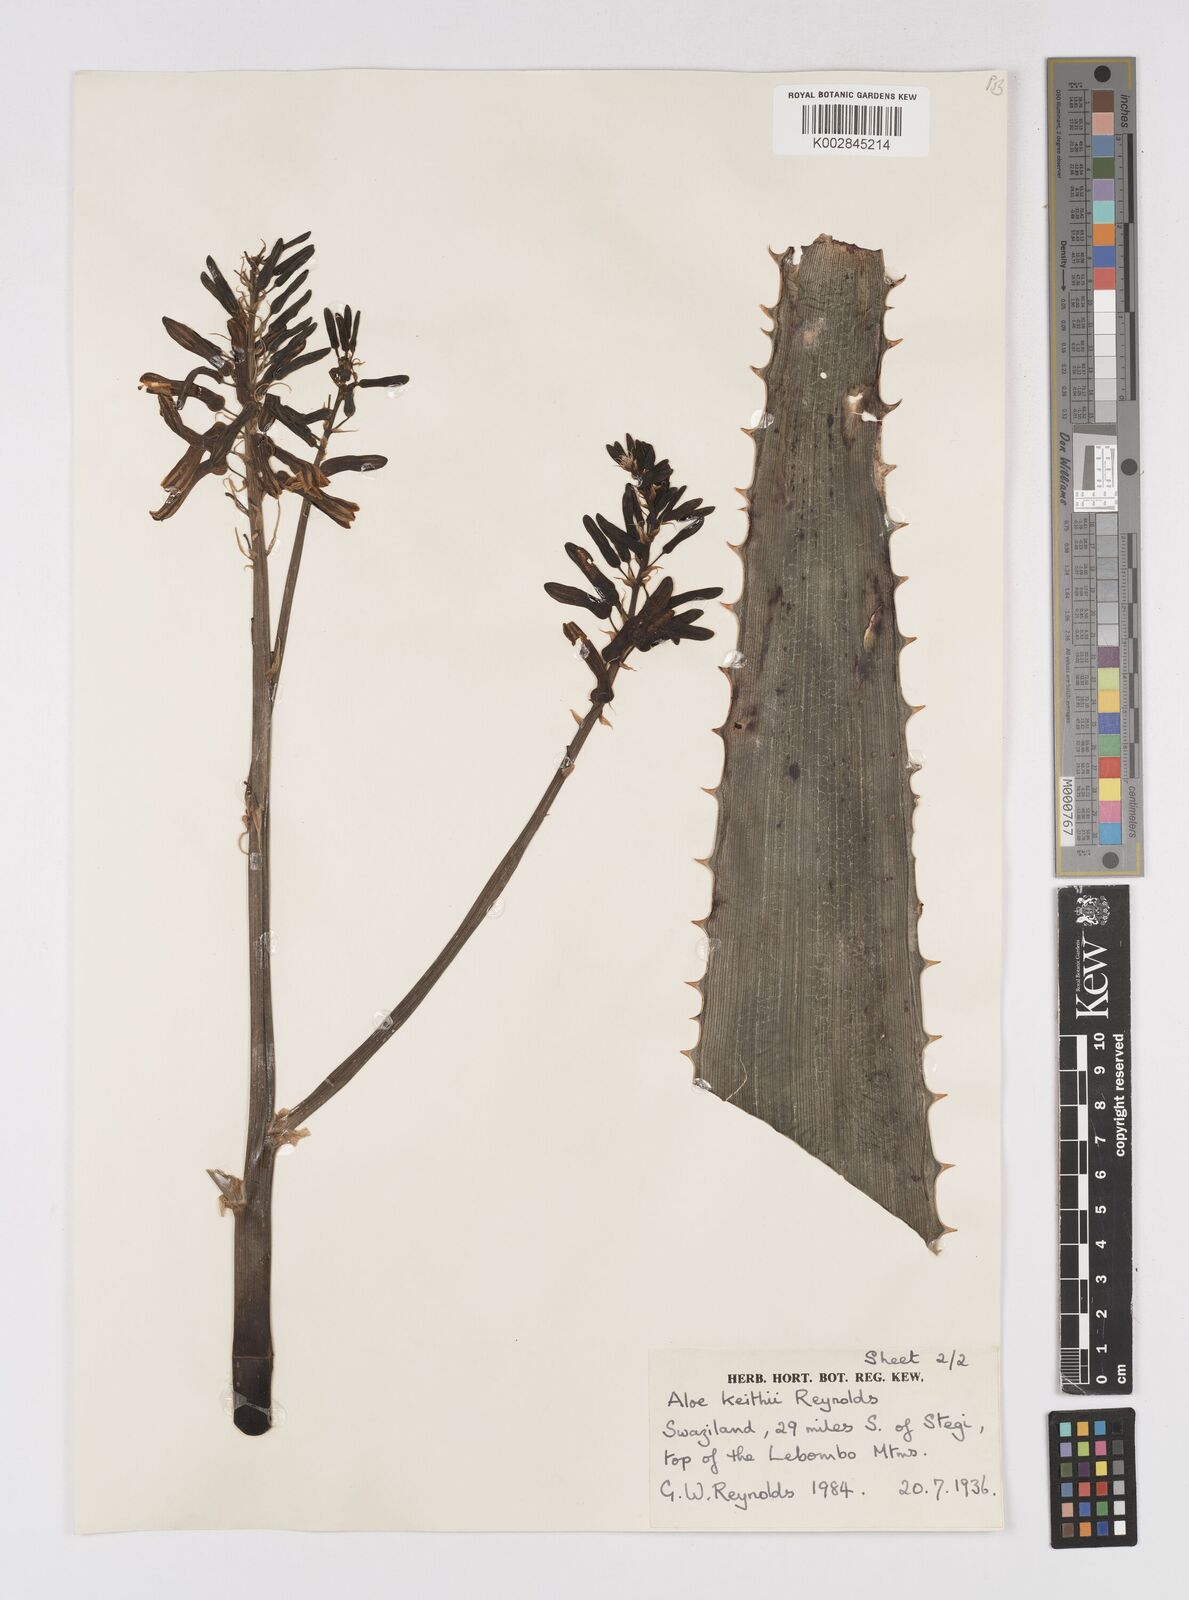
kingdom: Plantae
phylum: Tracheophyta
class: Liliopsida
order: Asparagales
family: Asphodelaceae
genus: Aloe
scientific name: Aloe parvibracteata
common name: Lowveld spotted aloe
